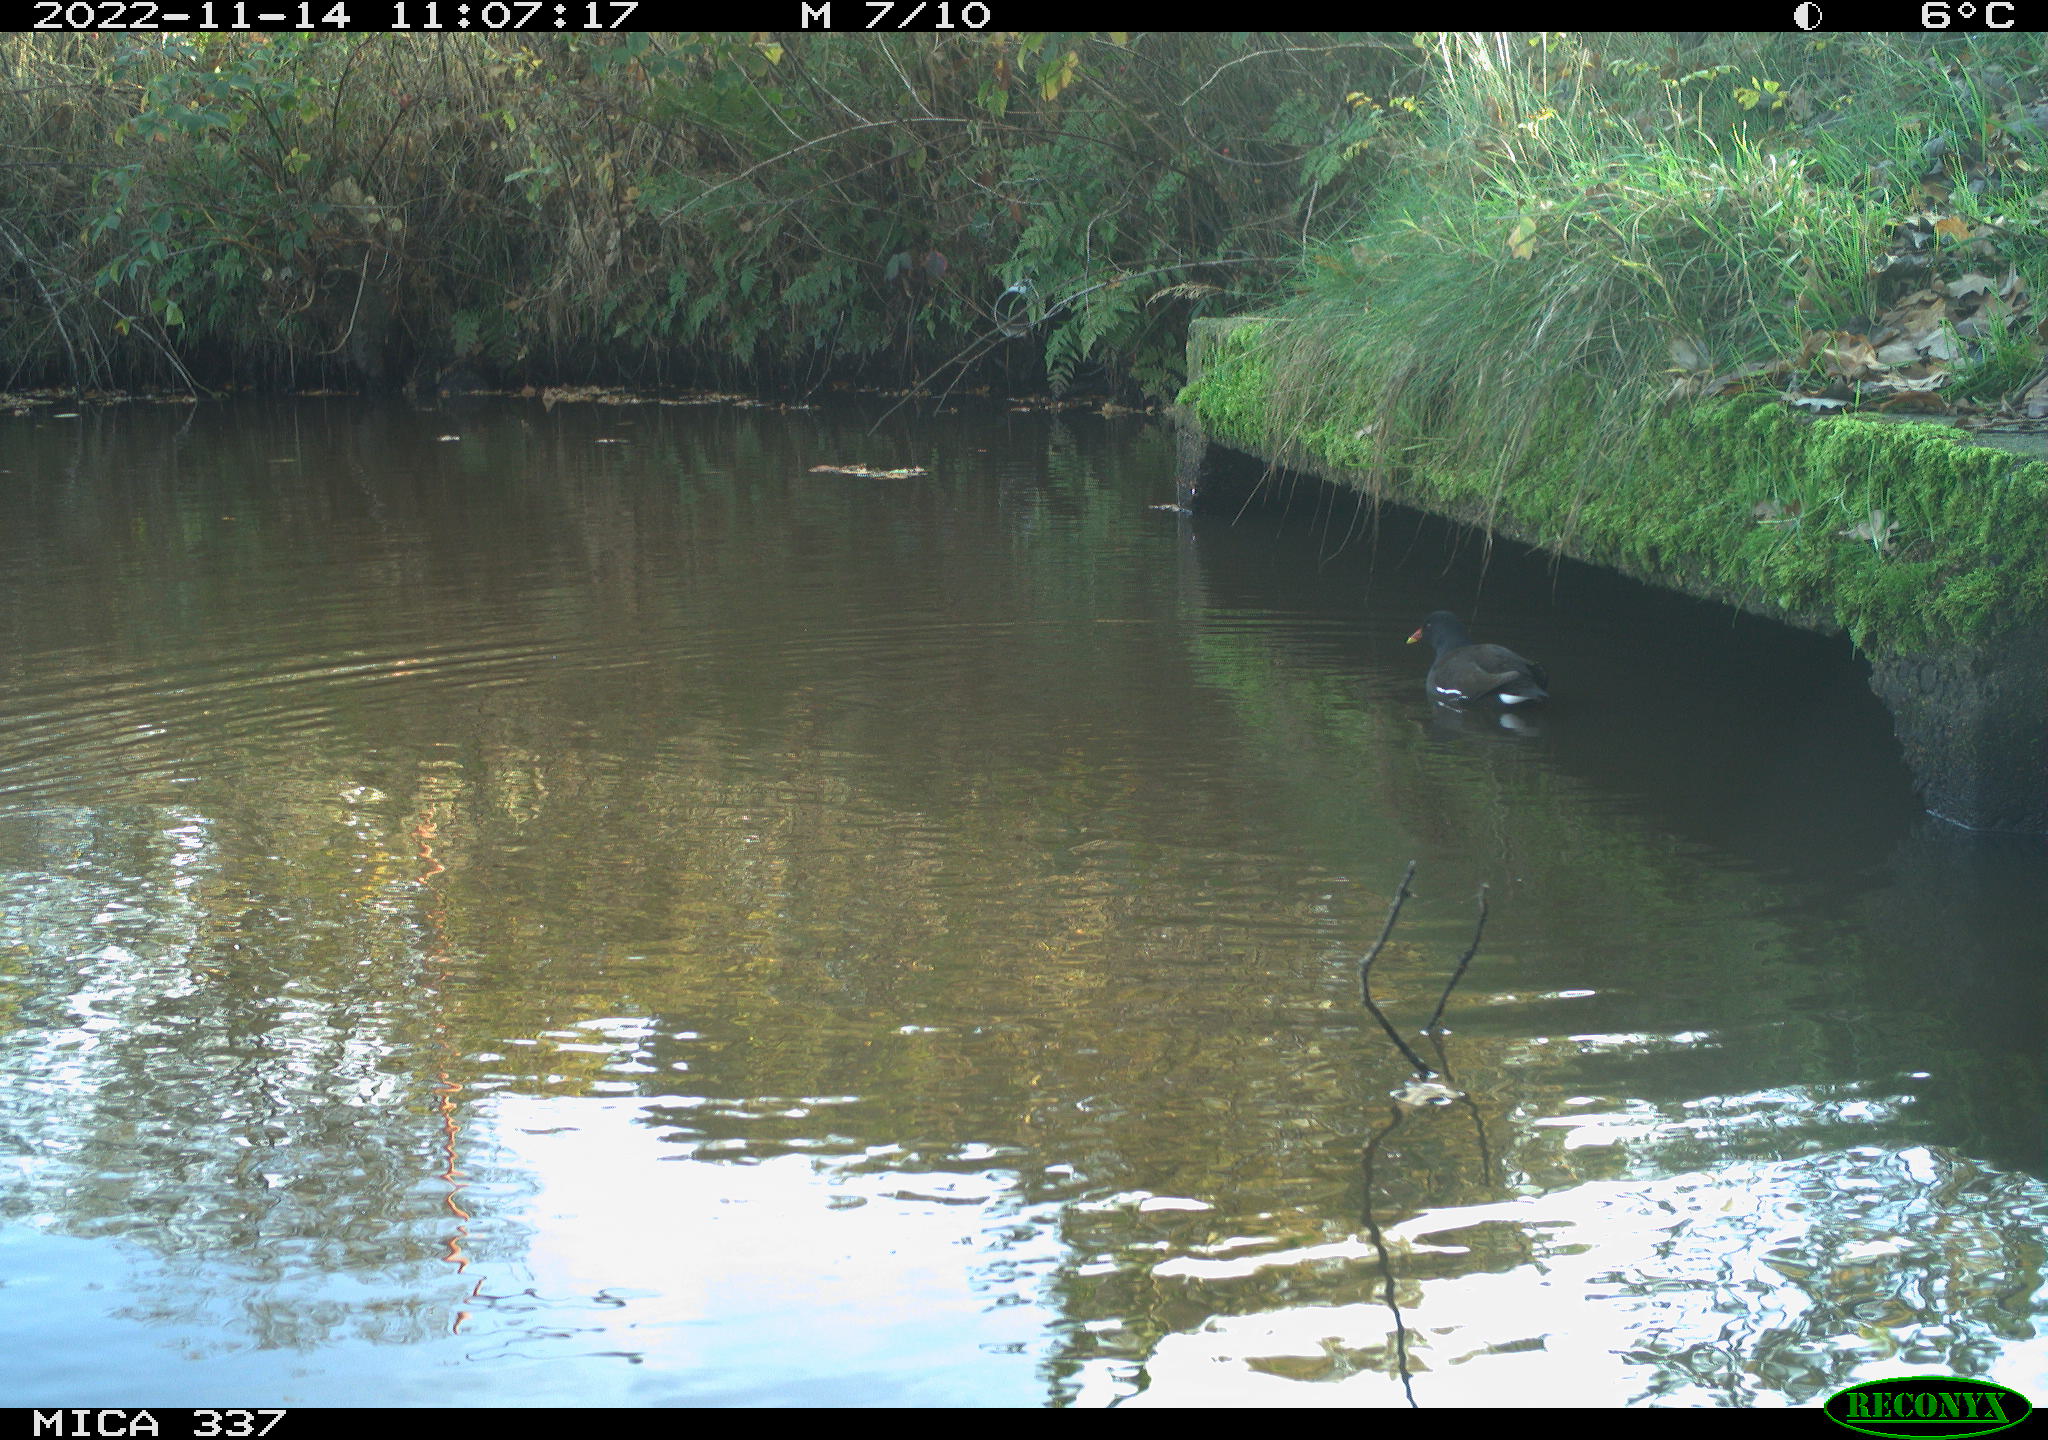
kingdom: Animalia
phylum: Chordata
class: Aves
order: Gruiformes
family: Rallidae
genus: Gallinula
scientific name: Gallinula chloropus
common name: Common moorhen
